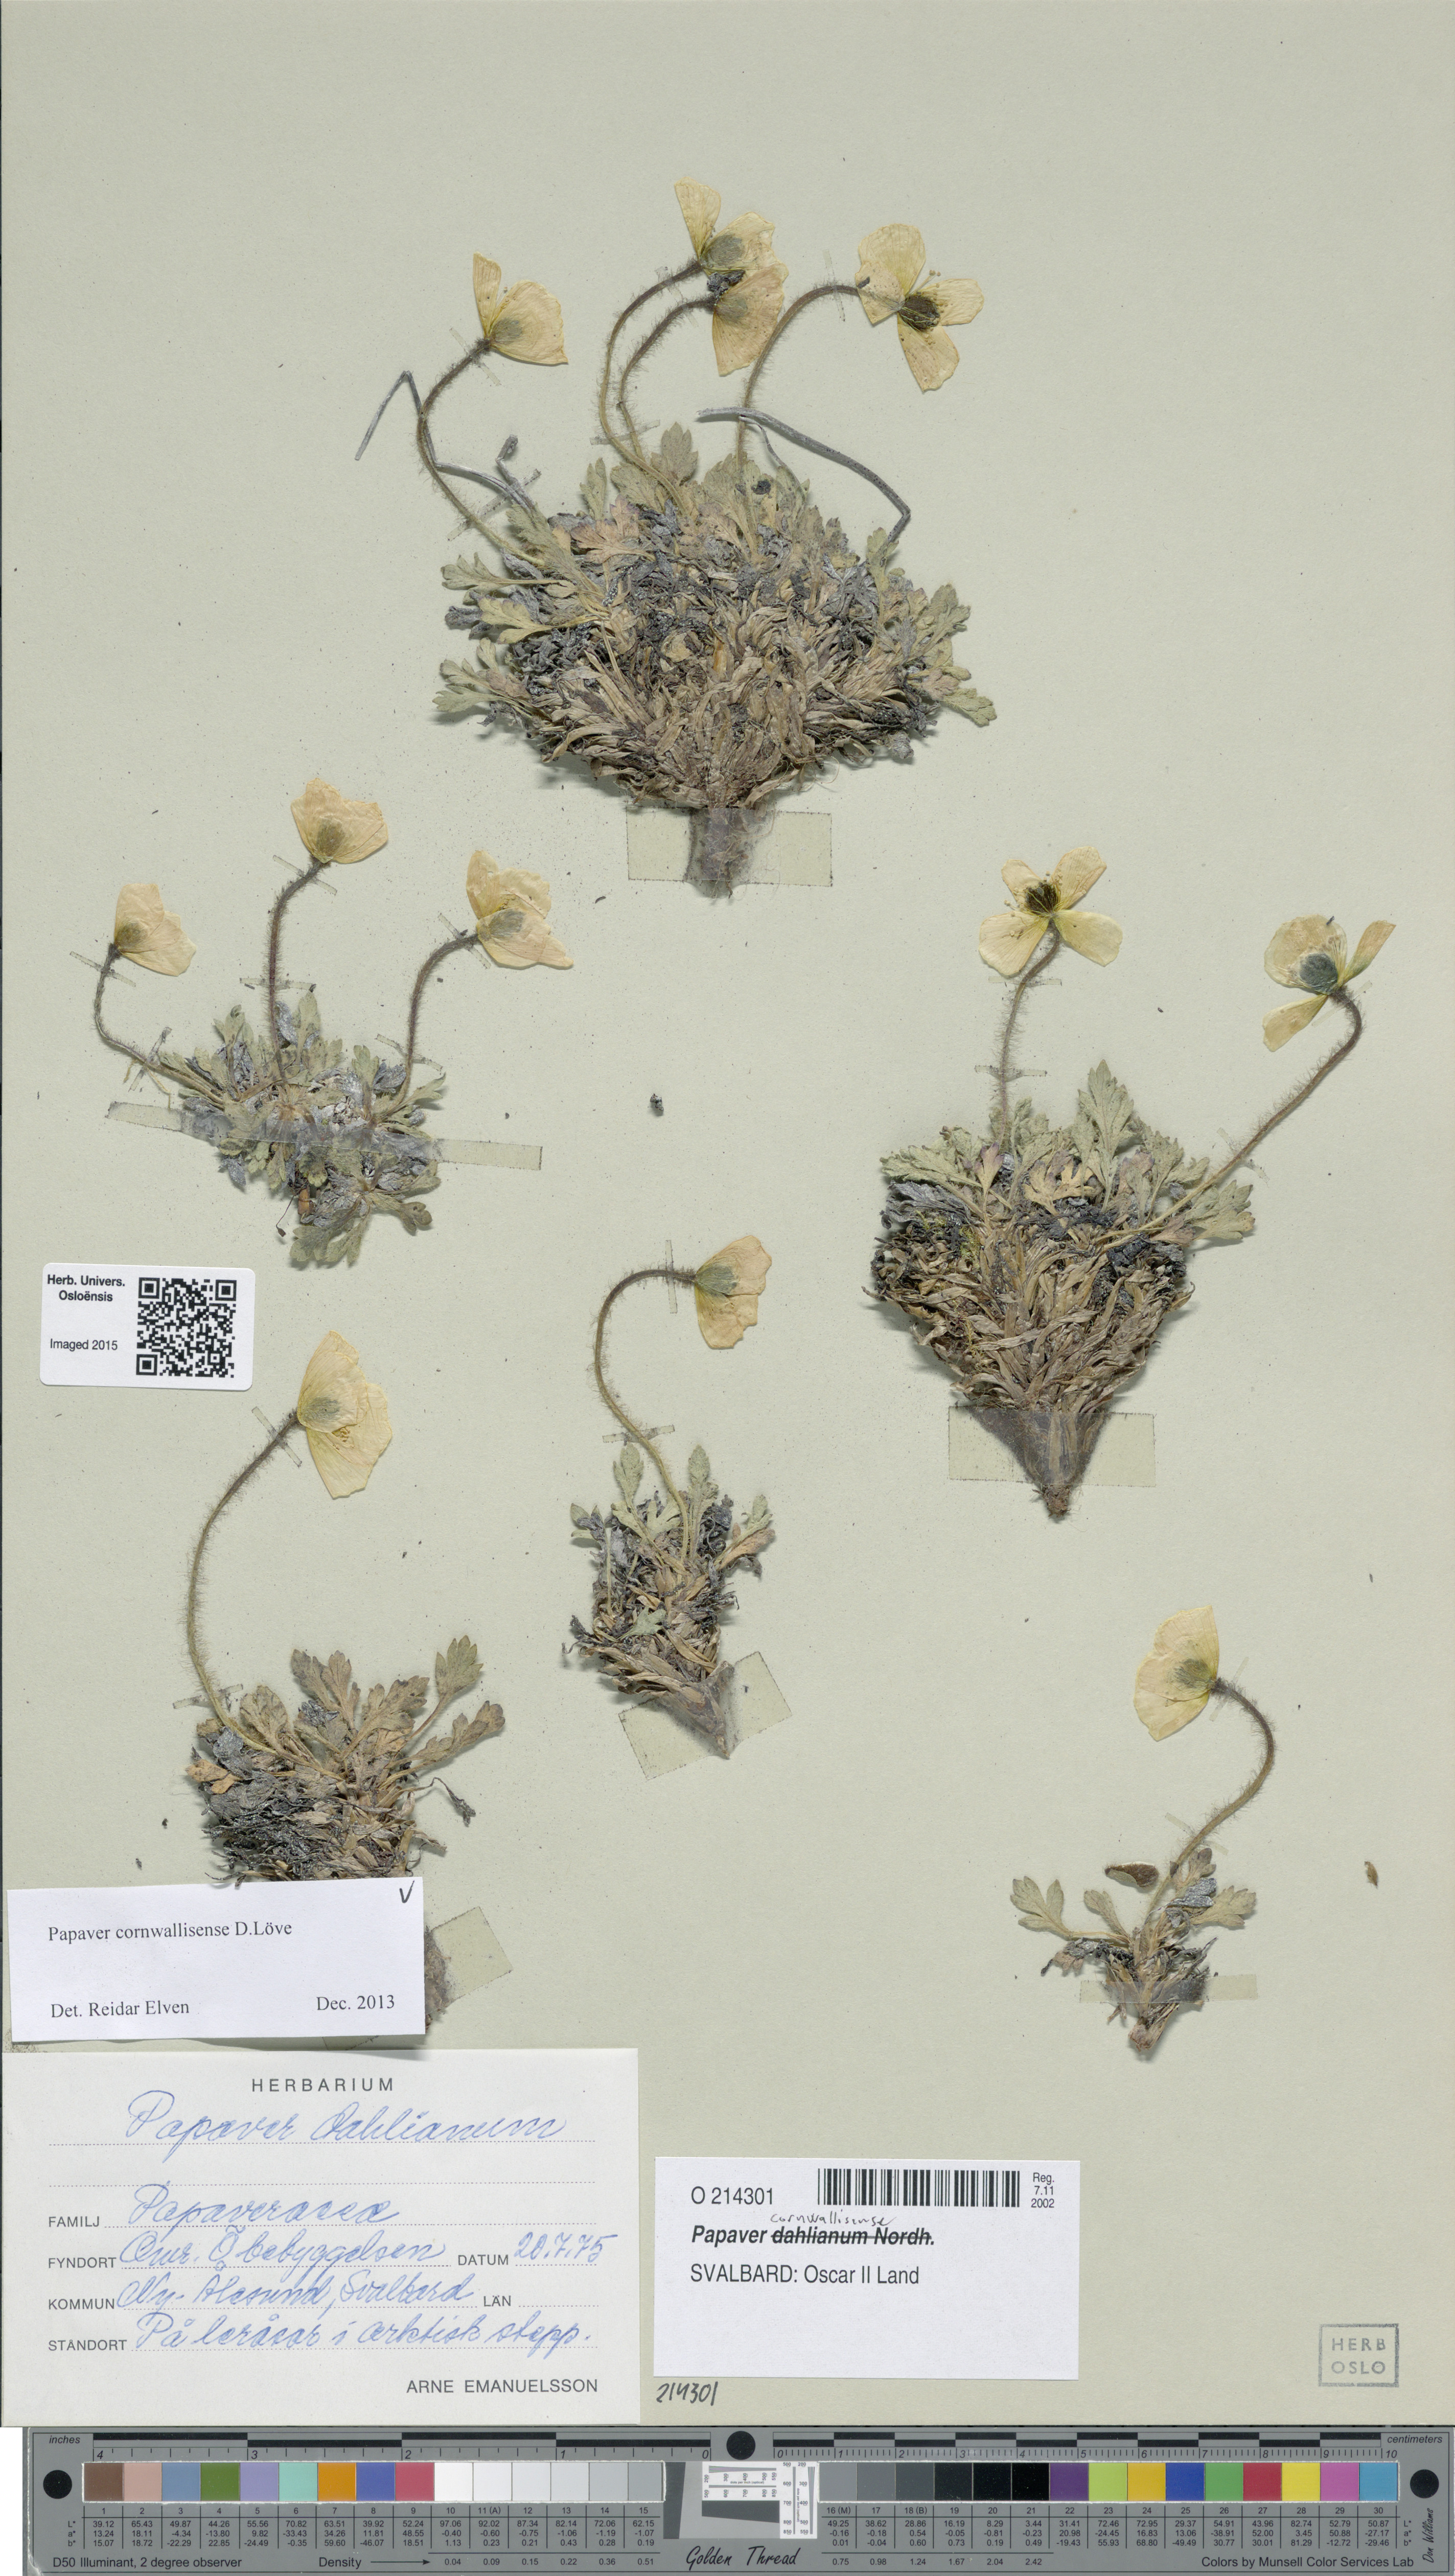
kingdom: Plantae
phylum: Tracheophyta
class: Magnoliopsida
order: Ranunculales
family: Papaveraceae
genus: Papaver
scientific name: Papaver radicatum
